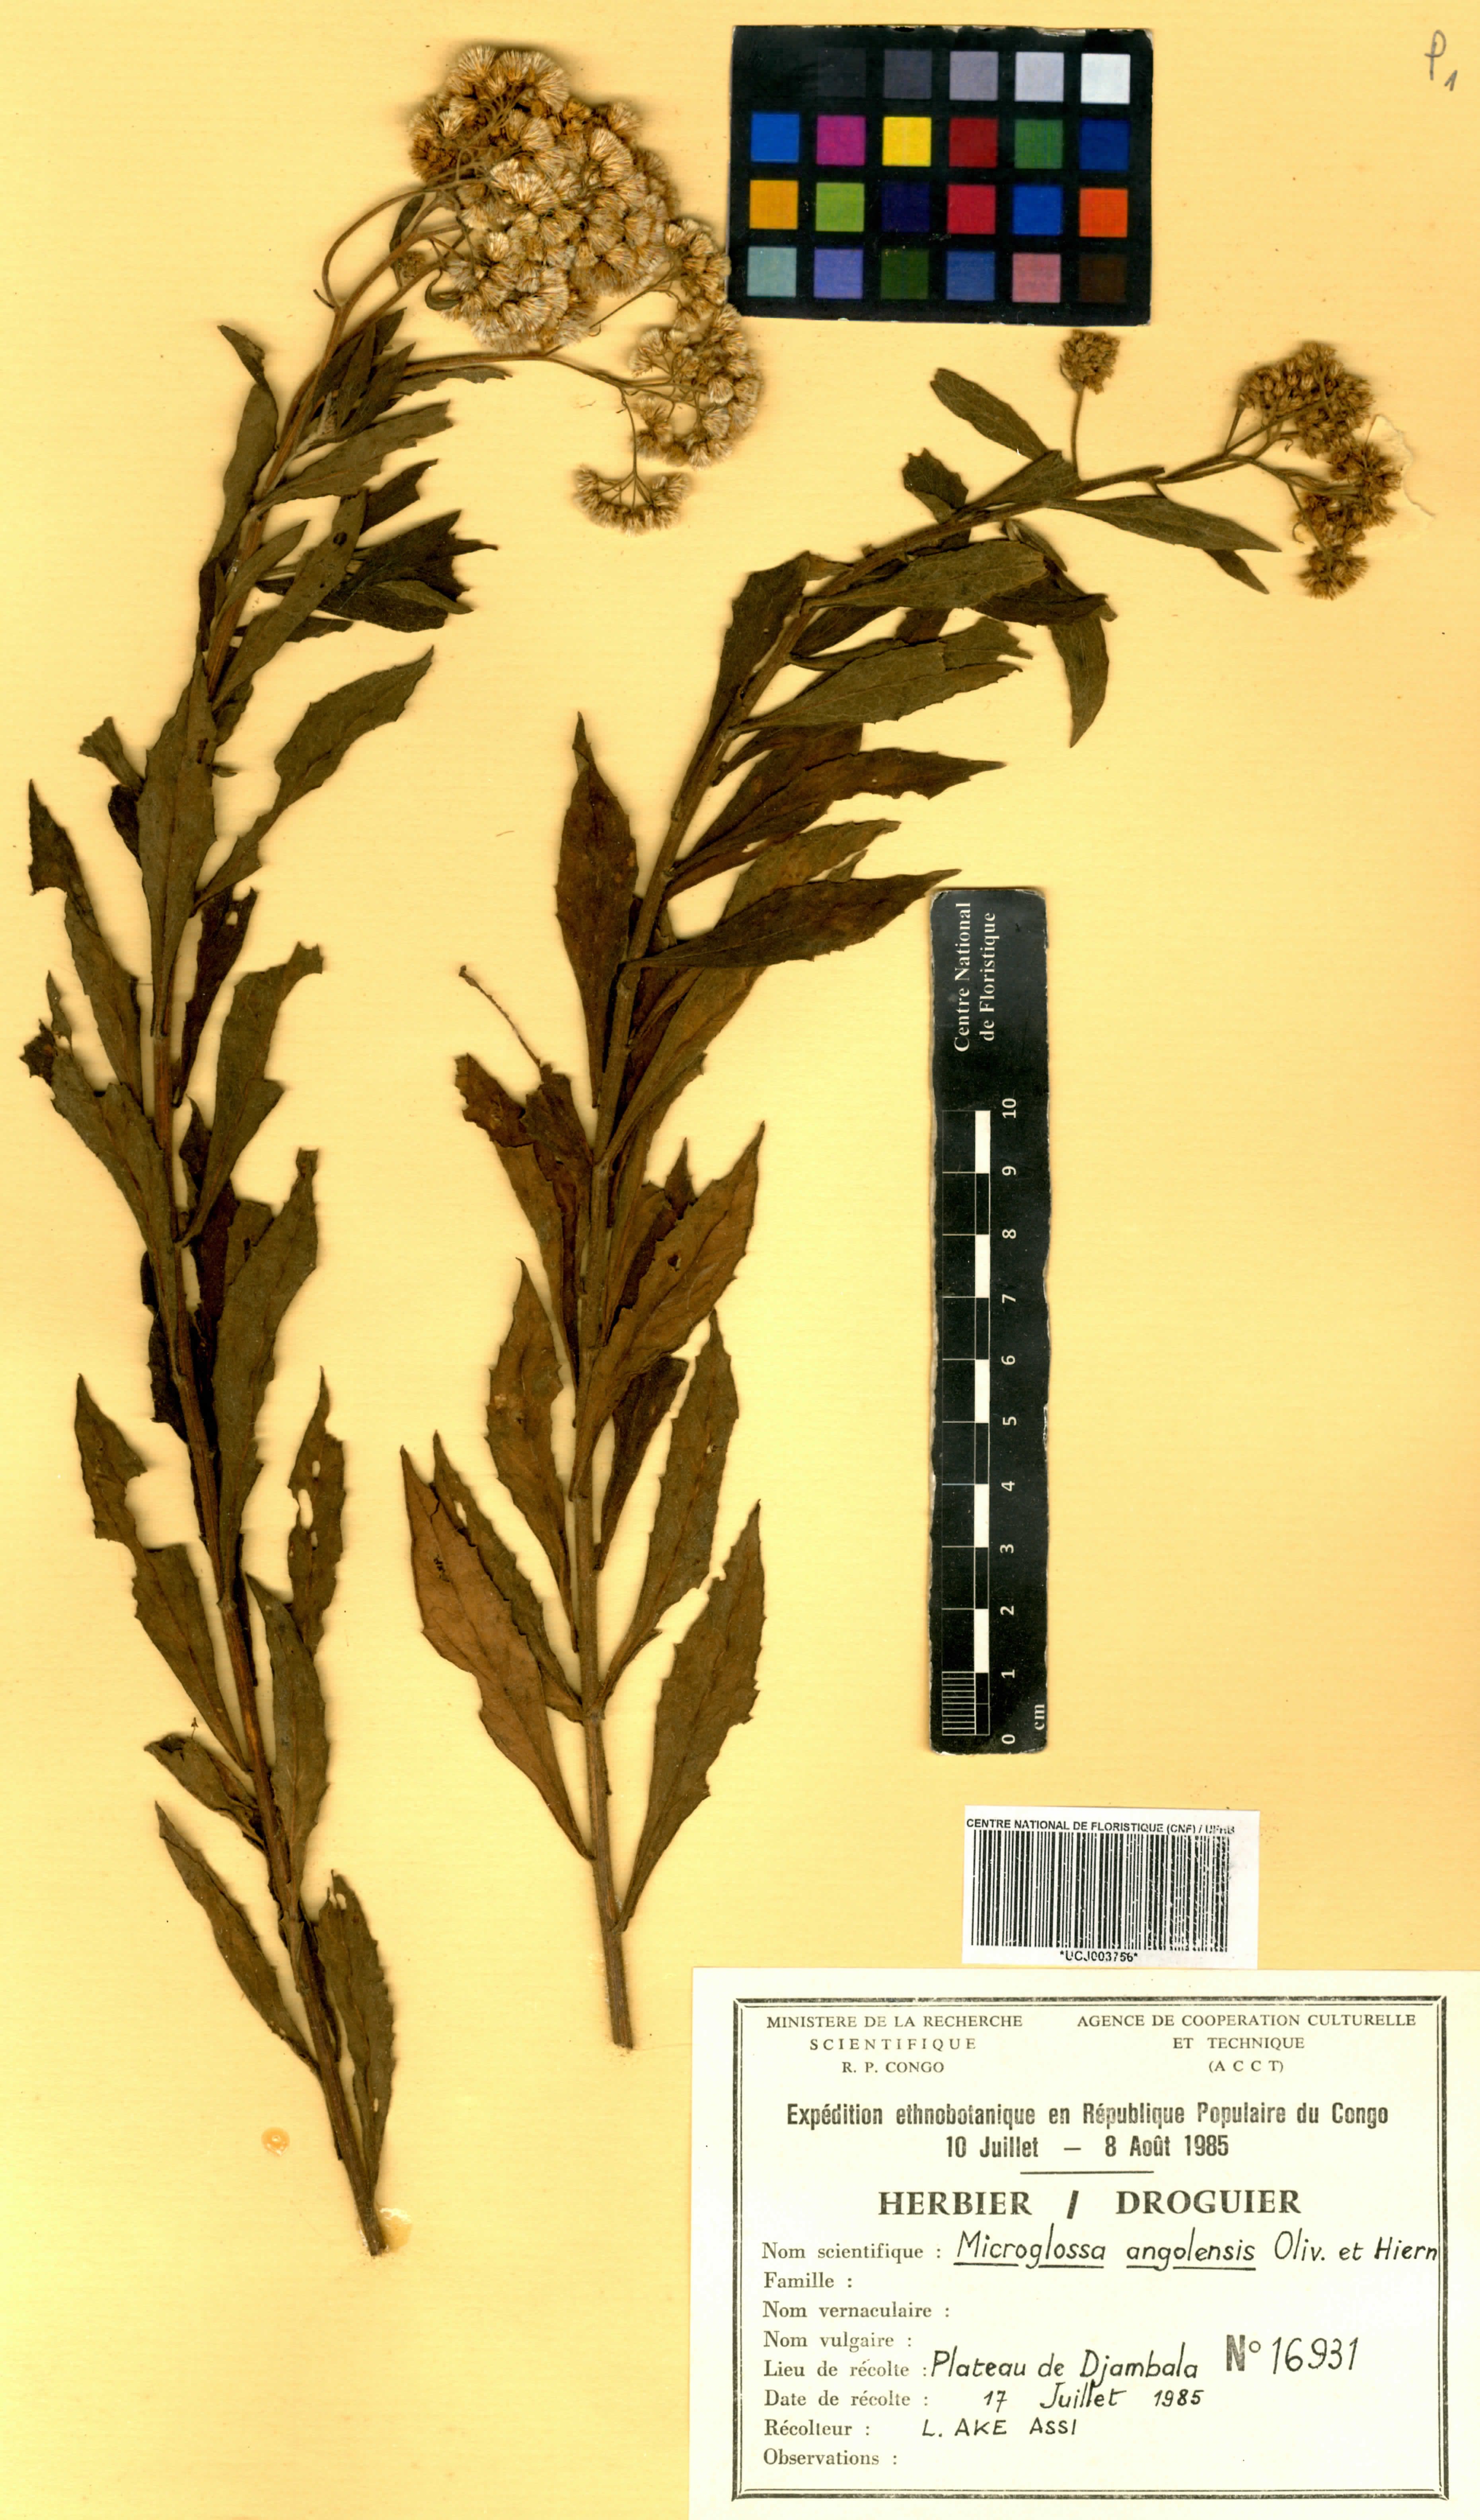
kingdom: Plantae
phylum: Tracheophyta
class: Magnoliopsida
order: Asterales
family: Asteraceae
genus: Microglossa
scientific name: Microglossa pyrrhopappa
